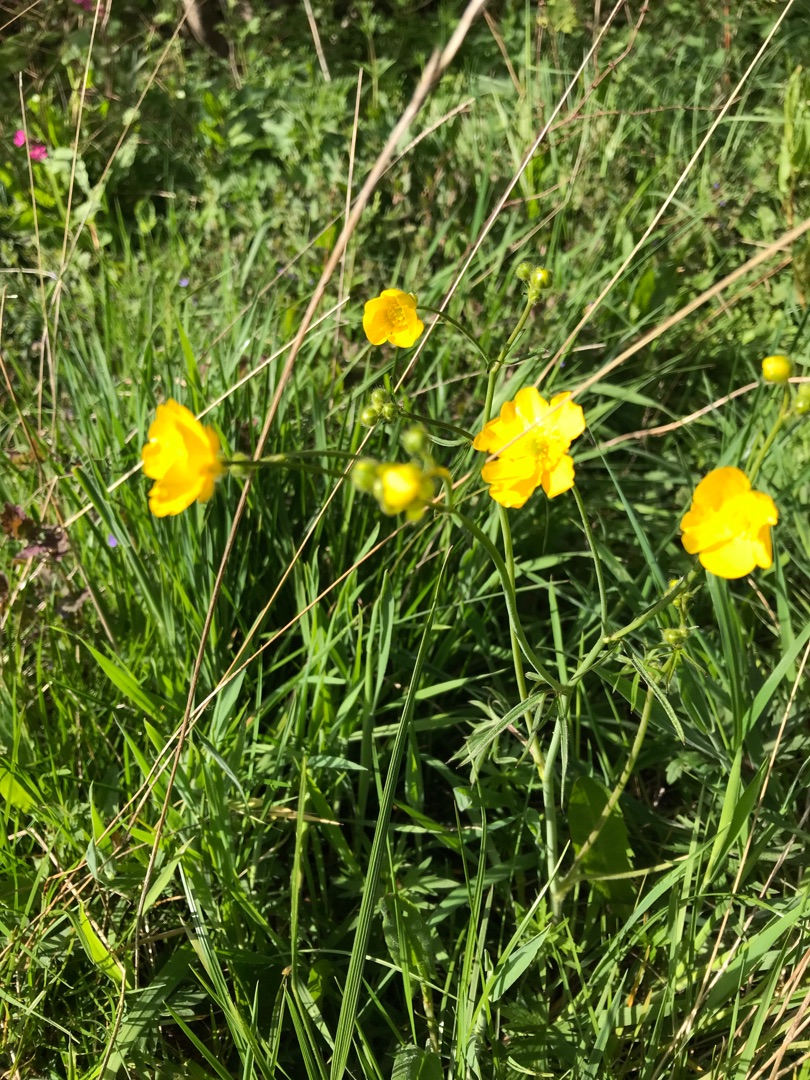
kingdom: Plantae
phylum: Tracheophyta
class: Magnoliopsida
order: Ranunculales
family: Ranunculaceae
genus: Ranunculus
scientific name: Ranunculus acris
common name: Bidende ranunkel
